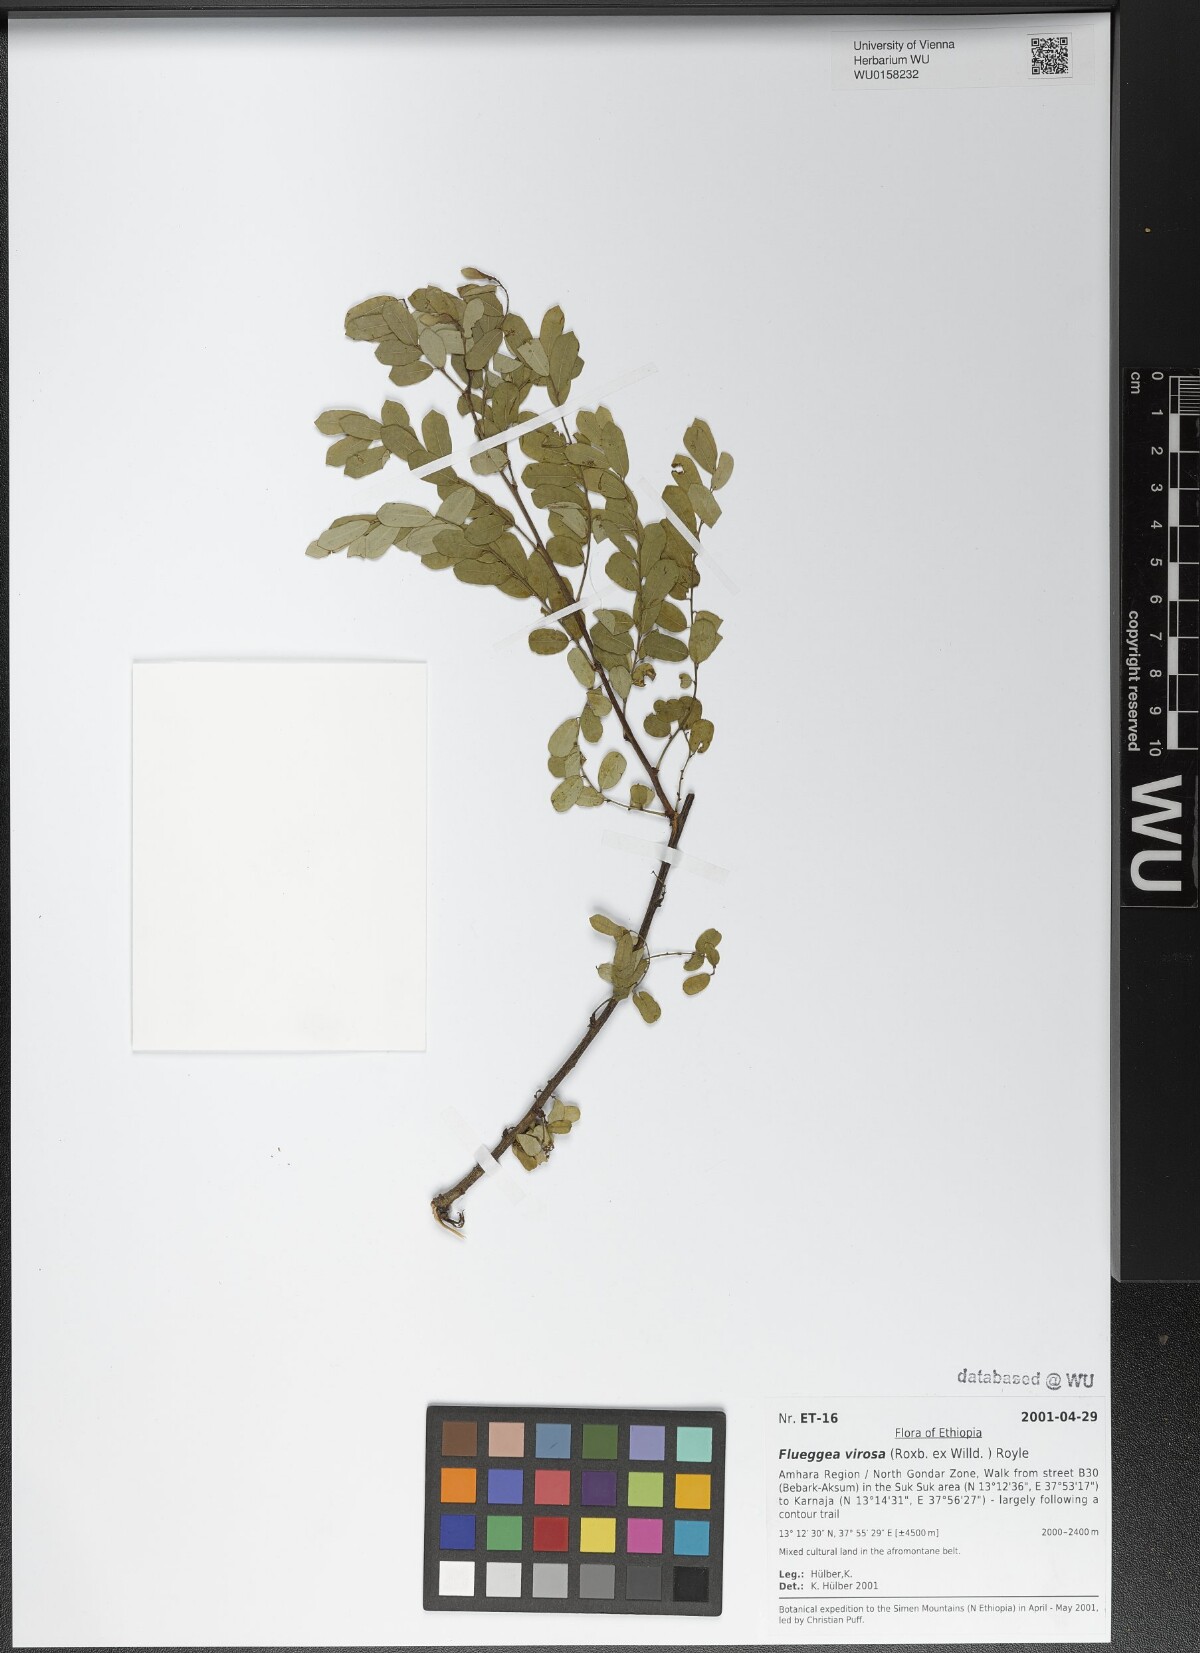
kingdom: Plantae
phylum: Tracheophyta
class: Magnoliopsida
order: Malpighiales
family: Phyllanthaceae
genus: Flueggea
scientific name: Flueggea virosa
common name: Common bushweed
